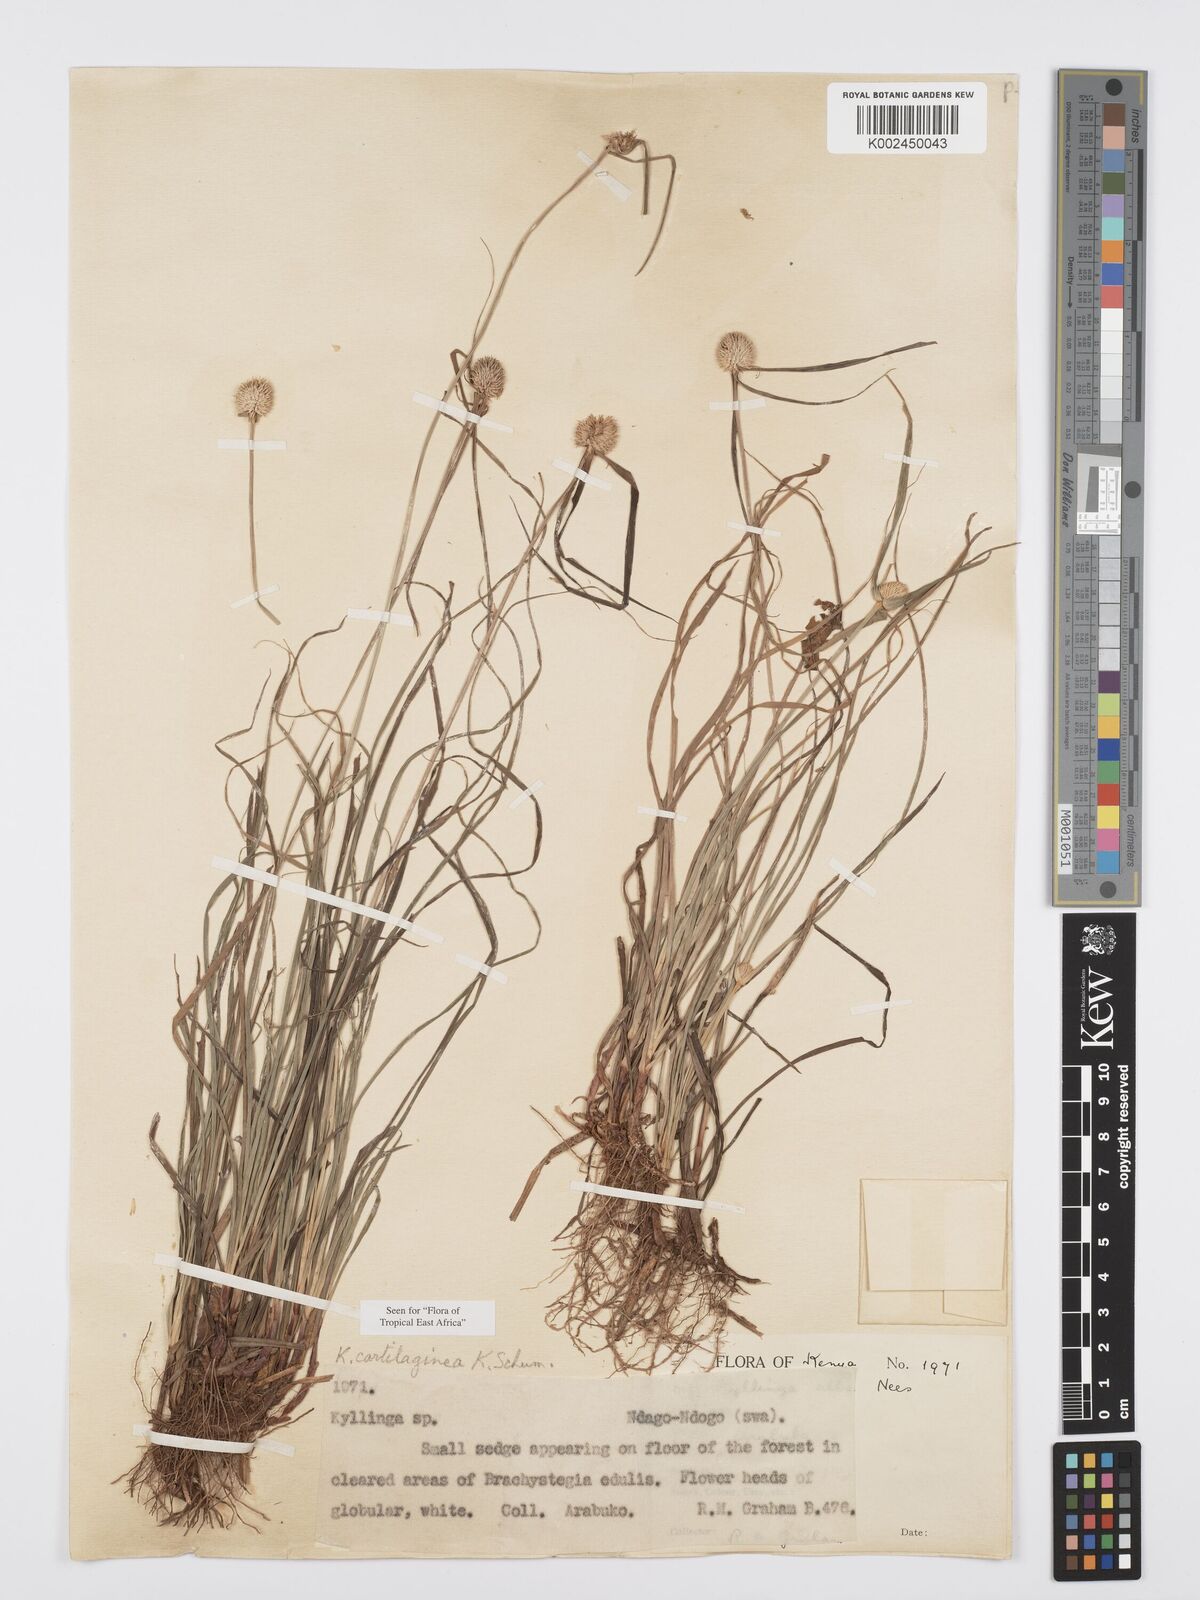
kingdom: Plantae
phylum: Tracheophyta
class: Liliopsida
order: Poales
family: Cyperaceae
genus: Cyperus
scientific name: Cyperus cartilagineus
